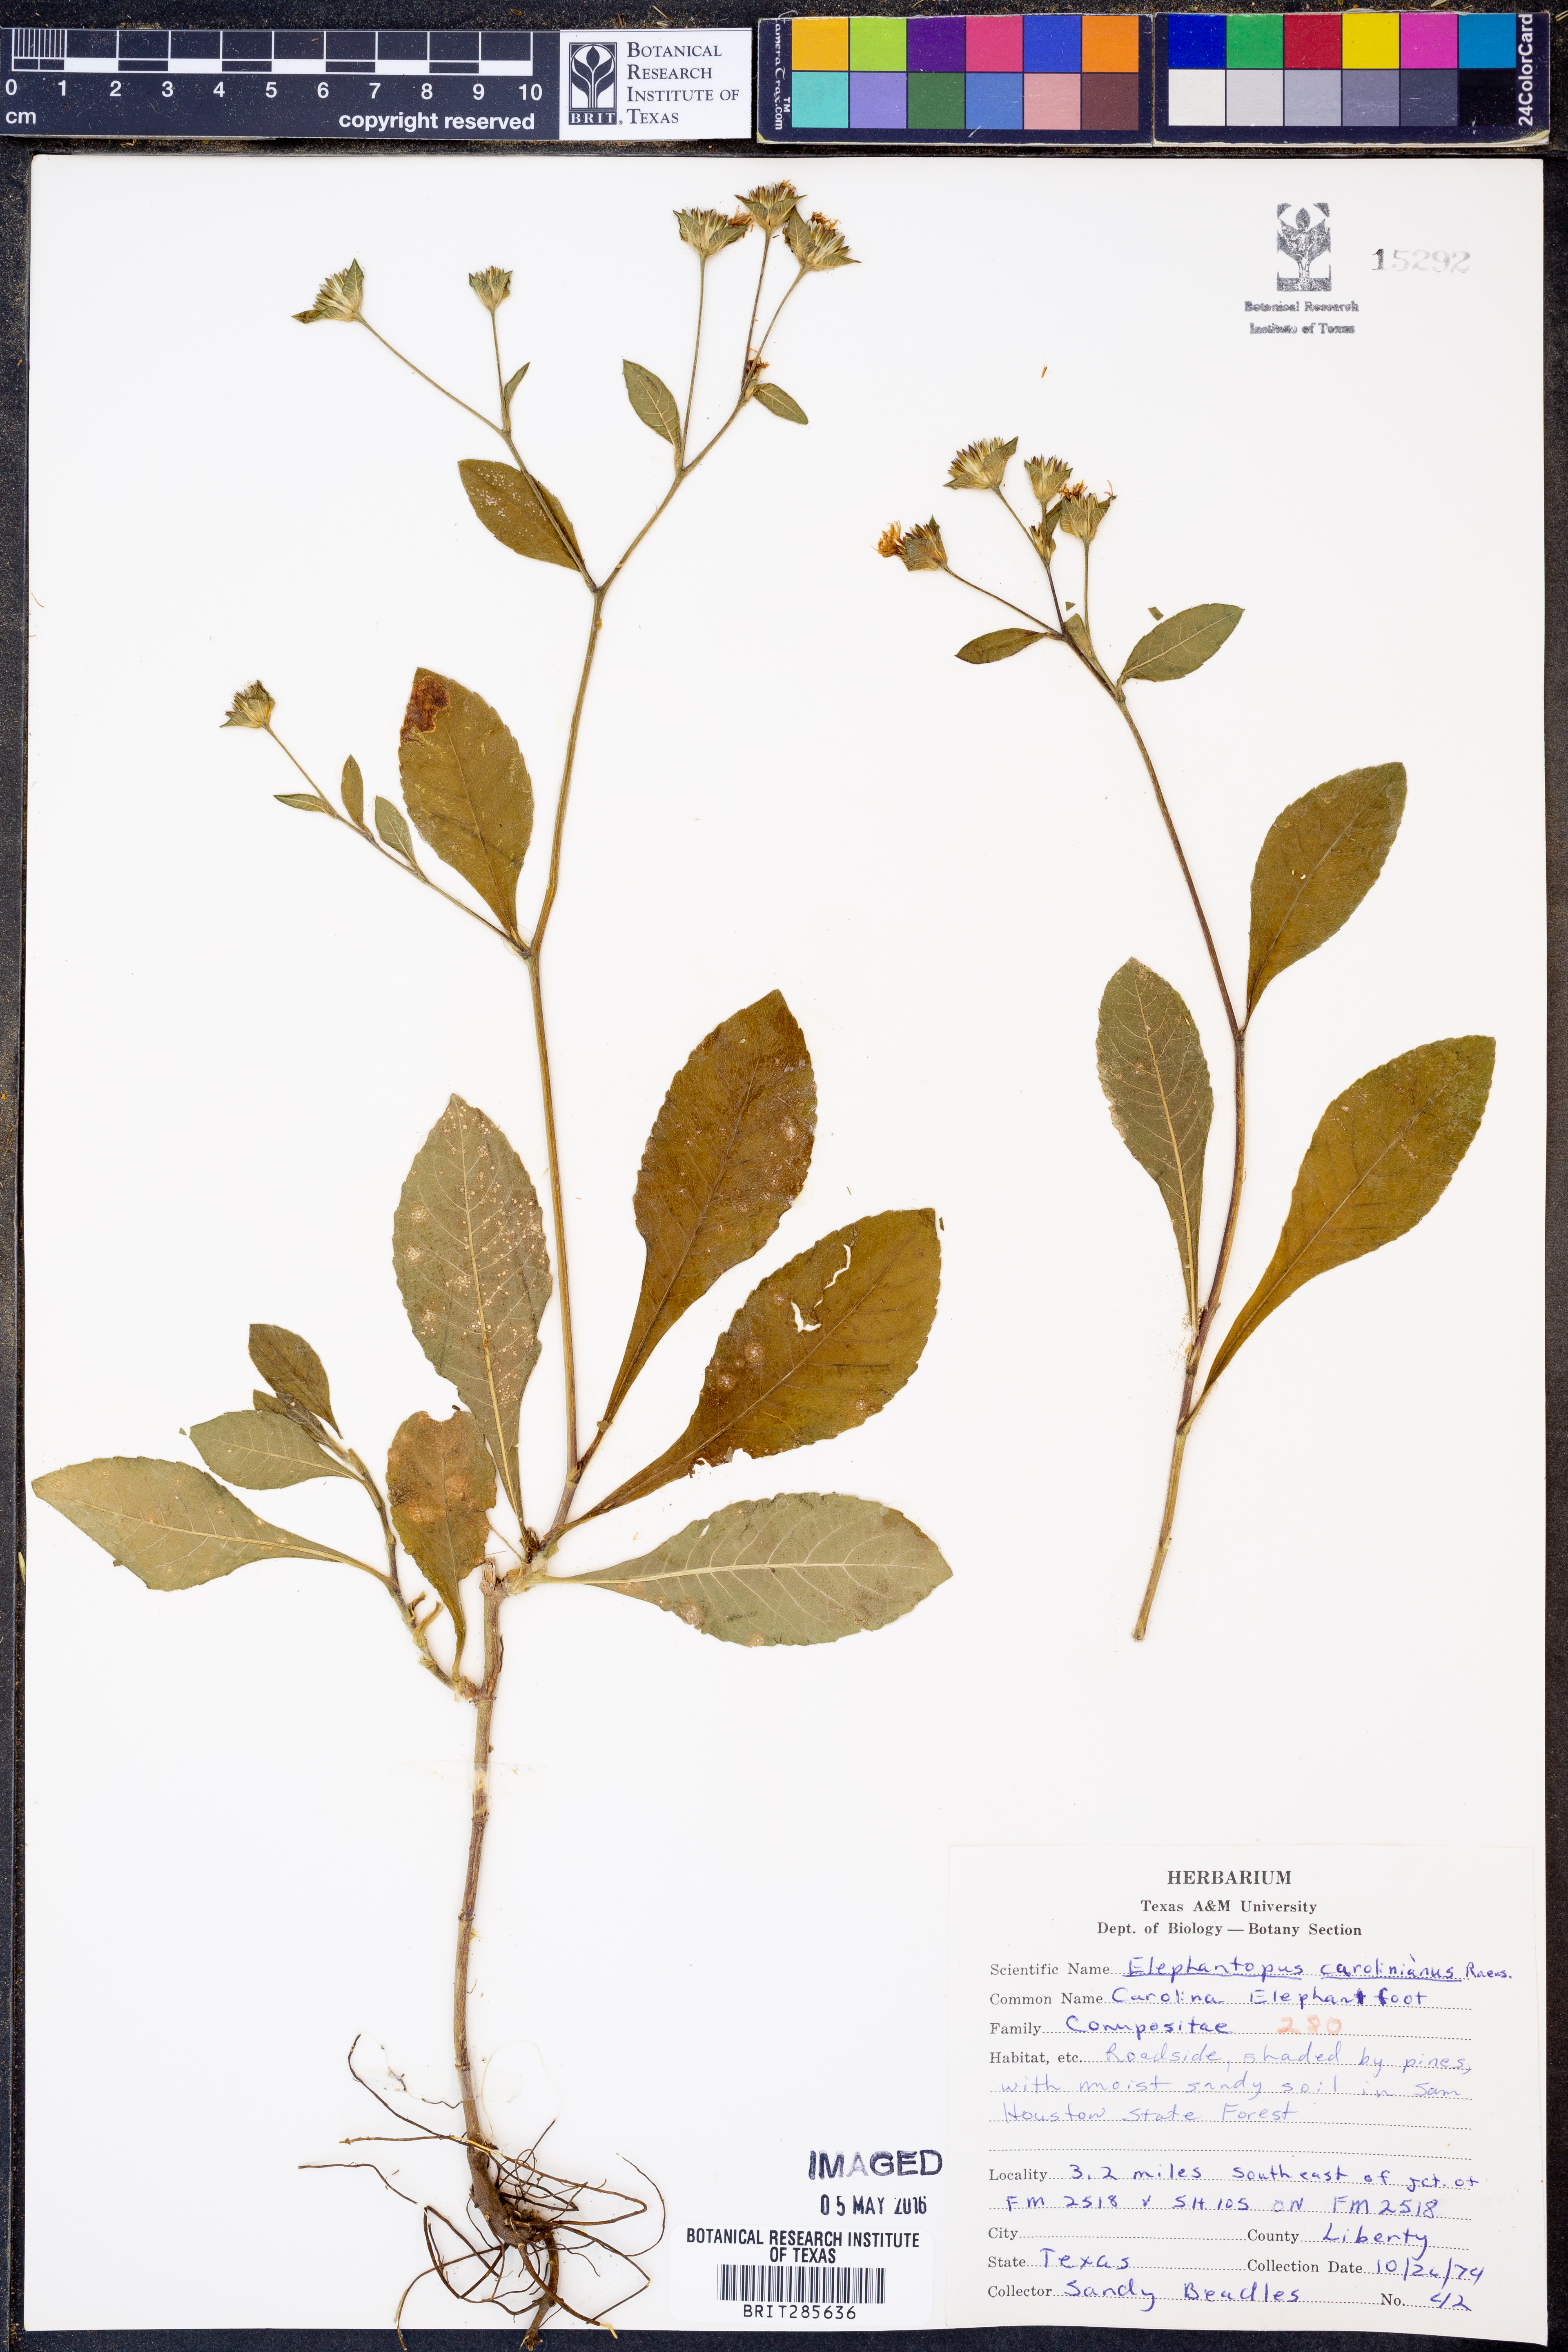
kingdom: Plantae
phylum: Tracheophyta
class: Magnoliopsida
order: Asterales
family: Asteraceae
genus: Elephantopus
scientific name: Elephantopus carolinianus
